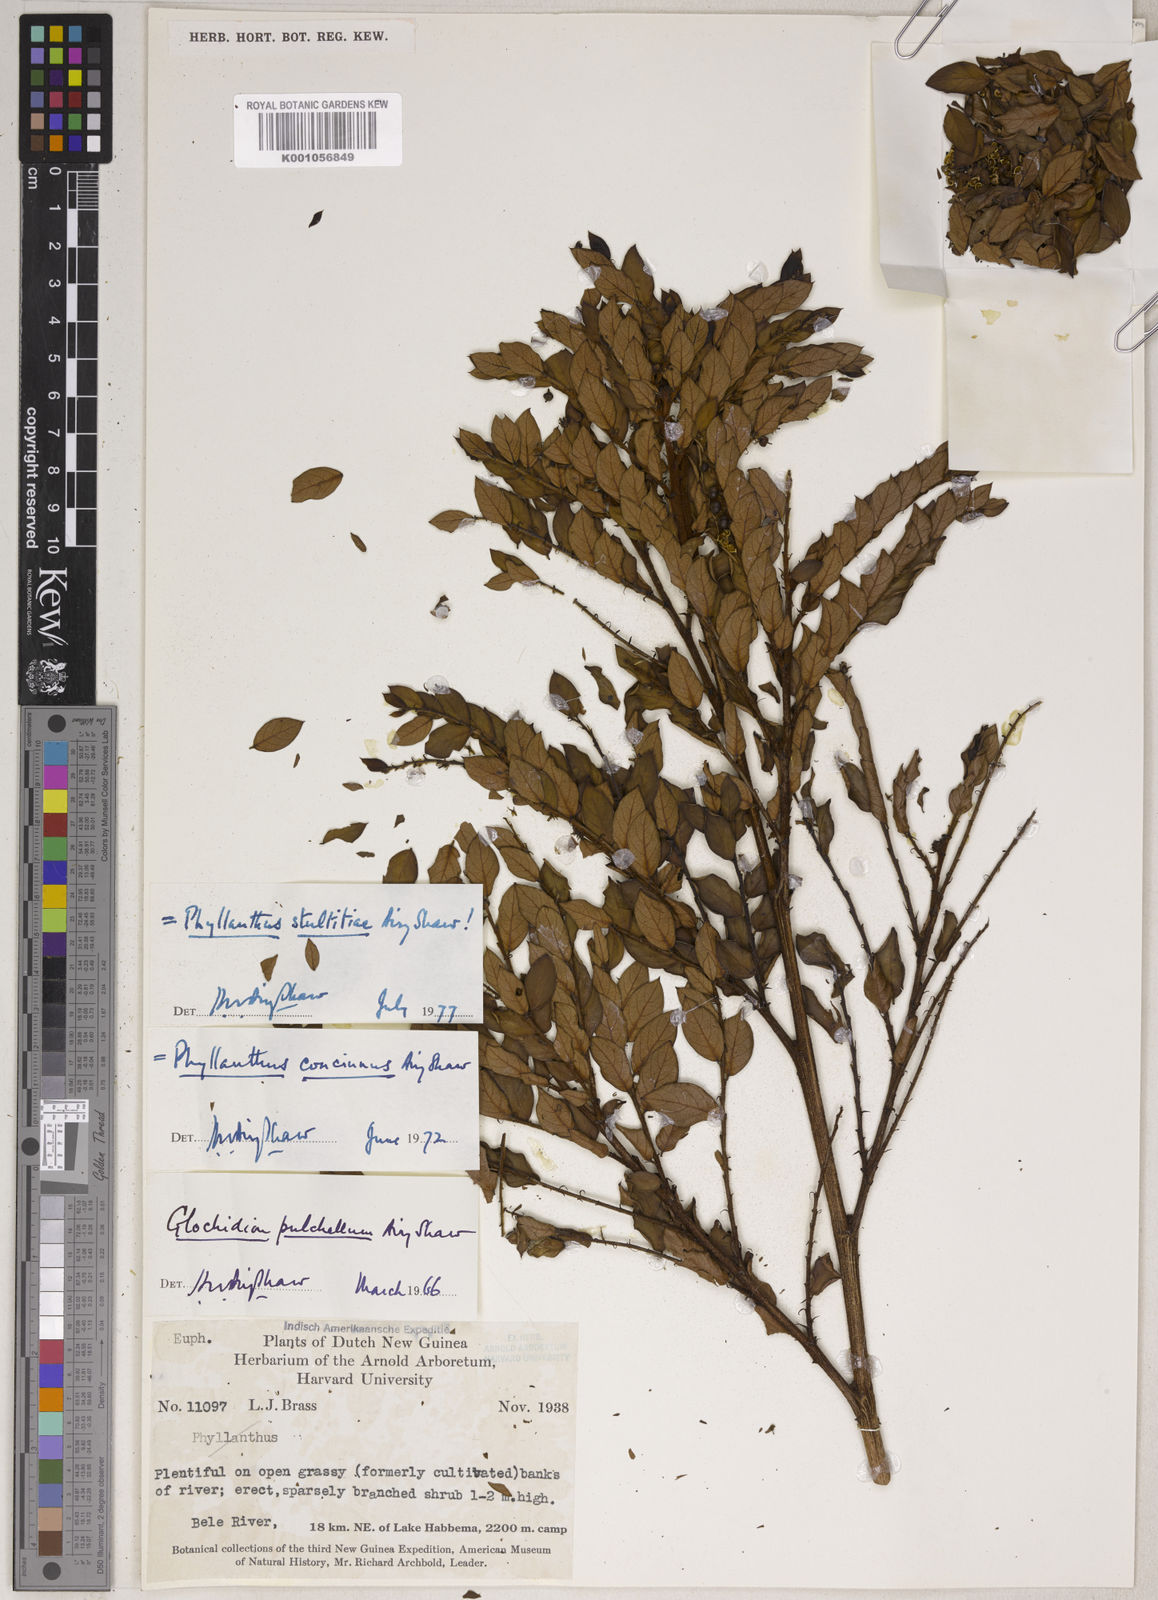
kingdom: Plantae
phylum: Tracheophyta
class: Magnoliopsida
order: Malpighiales
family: Phyllanthaceae
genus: Phyllanthus
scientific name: Phyllanthus stultitiae
